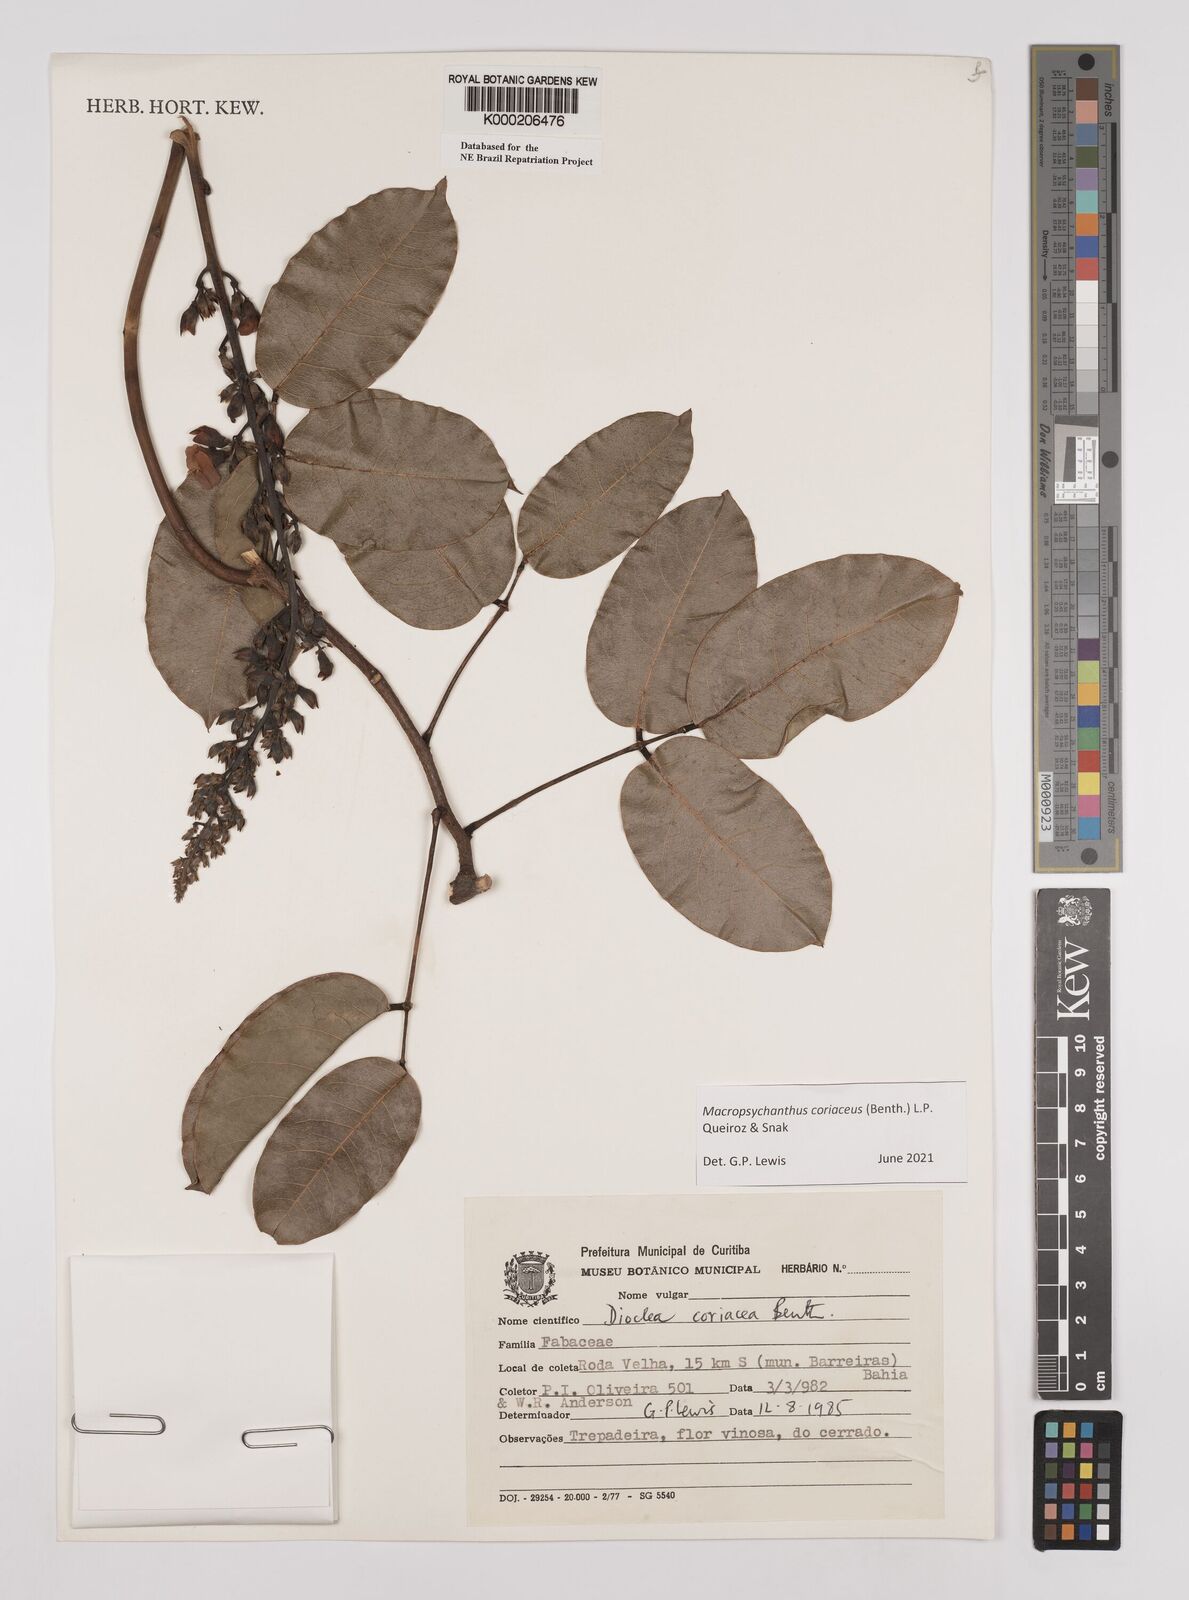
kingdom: Plantae
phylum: Tracheophyta
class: Magnoliopsida
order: Fabales
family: Fabaceae
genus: Macropsychanthus
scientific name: Macropsychanthus coriaceus
